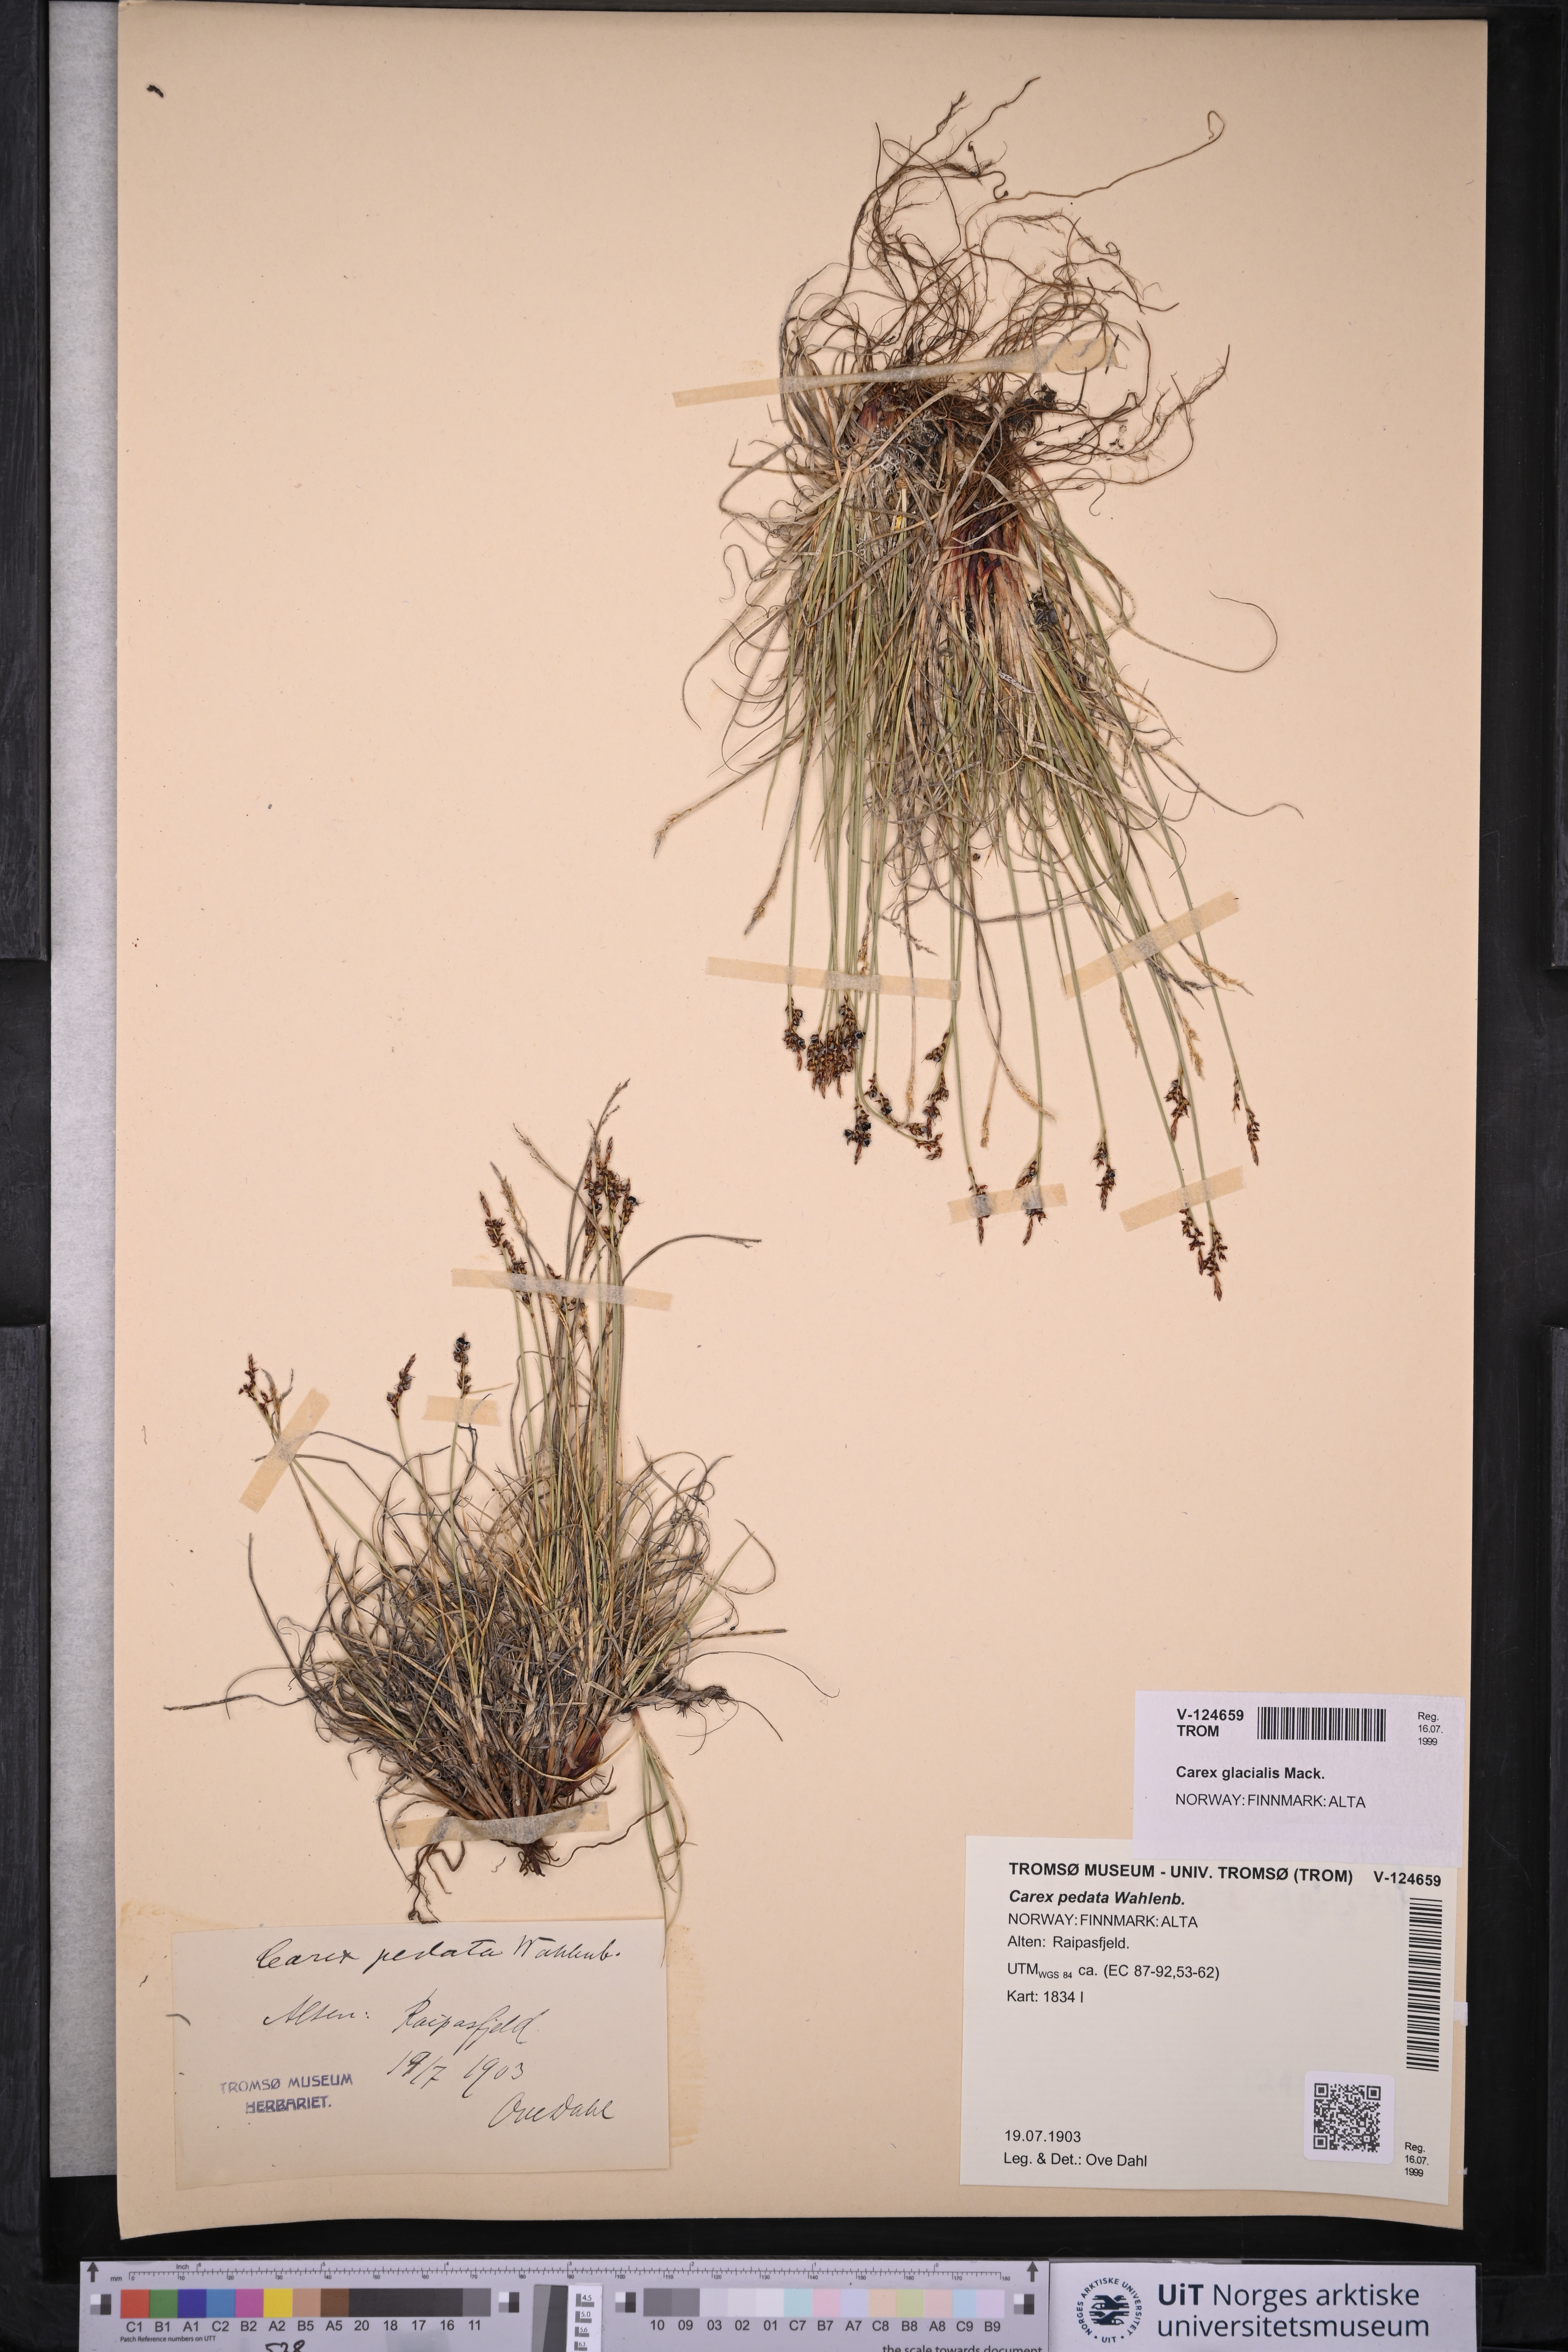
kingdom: Plantae
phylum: Tracheophyta
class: Liliopsida
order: Poales
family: Cyperaceae
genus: Carex
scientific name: Carex glacialis
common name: Newfoundland sedge
